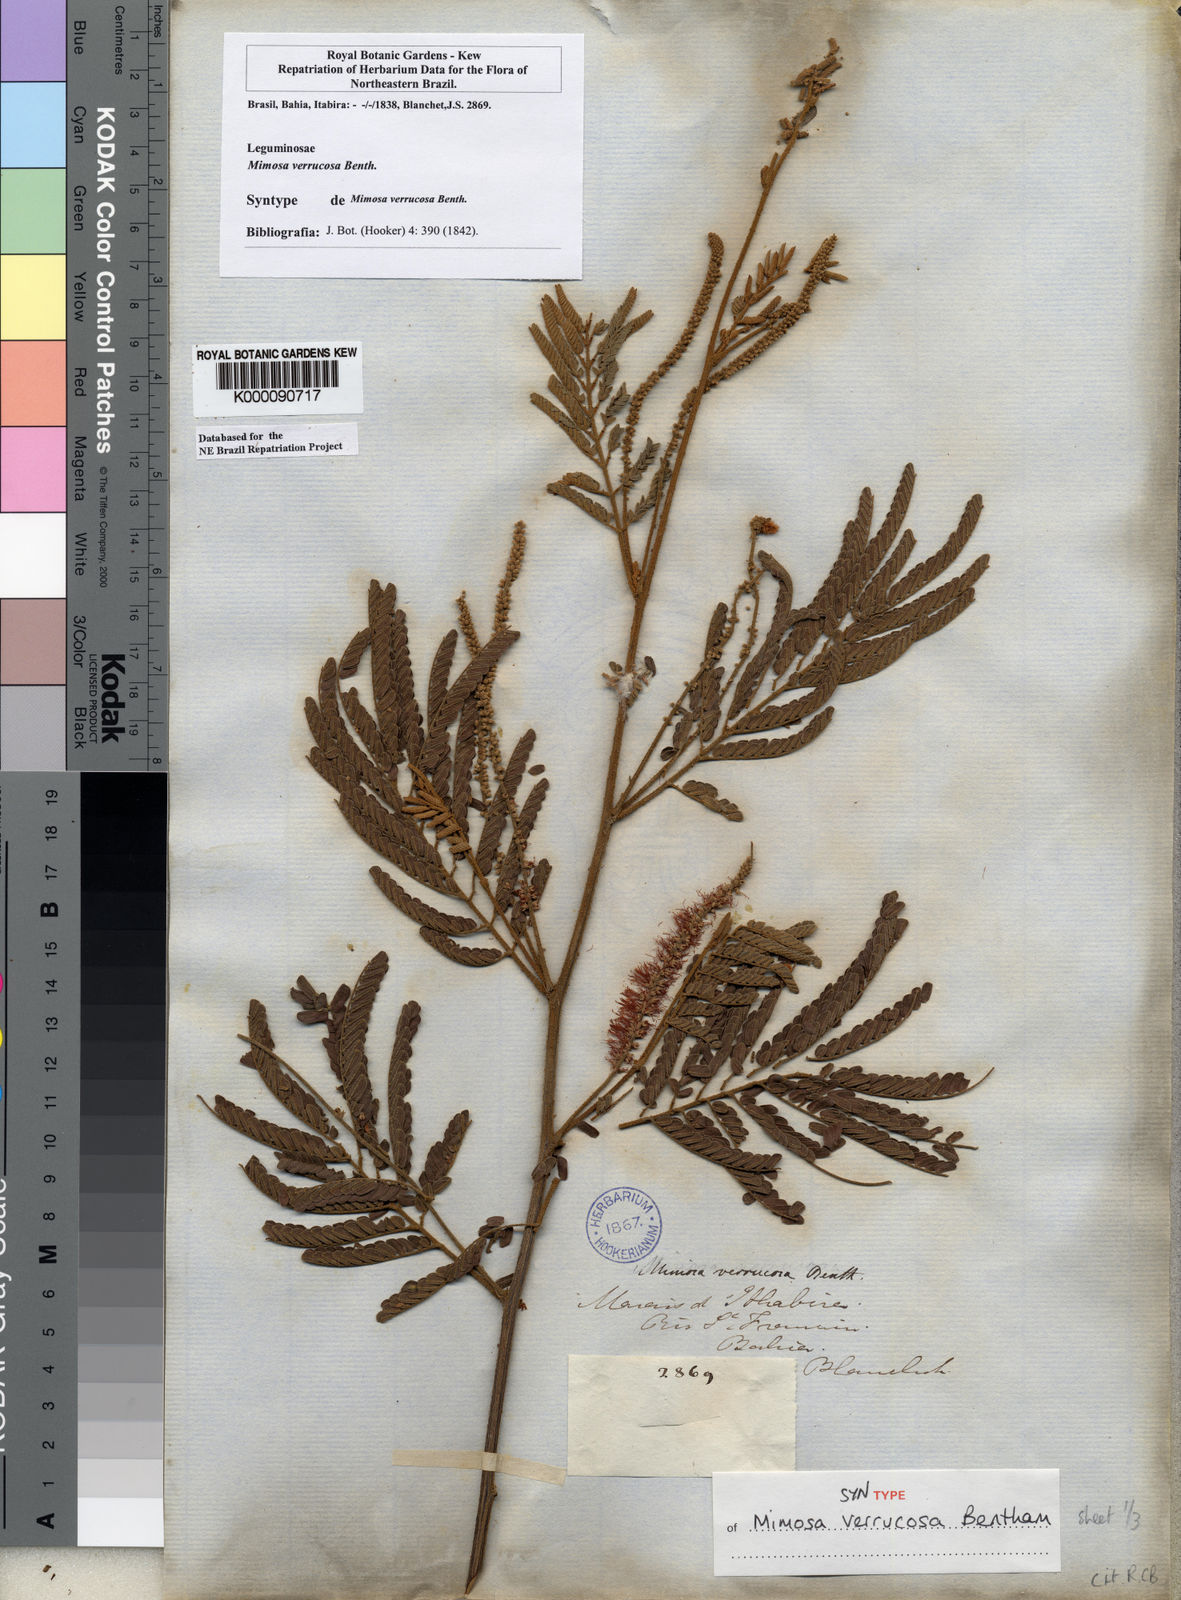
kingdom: Plantae
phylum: Tracheophyta
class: Magnoliopsida
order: Fabales
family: Fabaceae
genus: Mimosa
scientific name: Mimosa verrucosa
